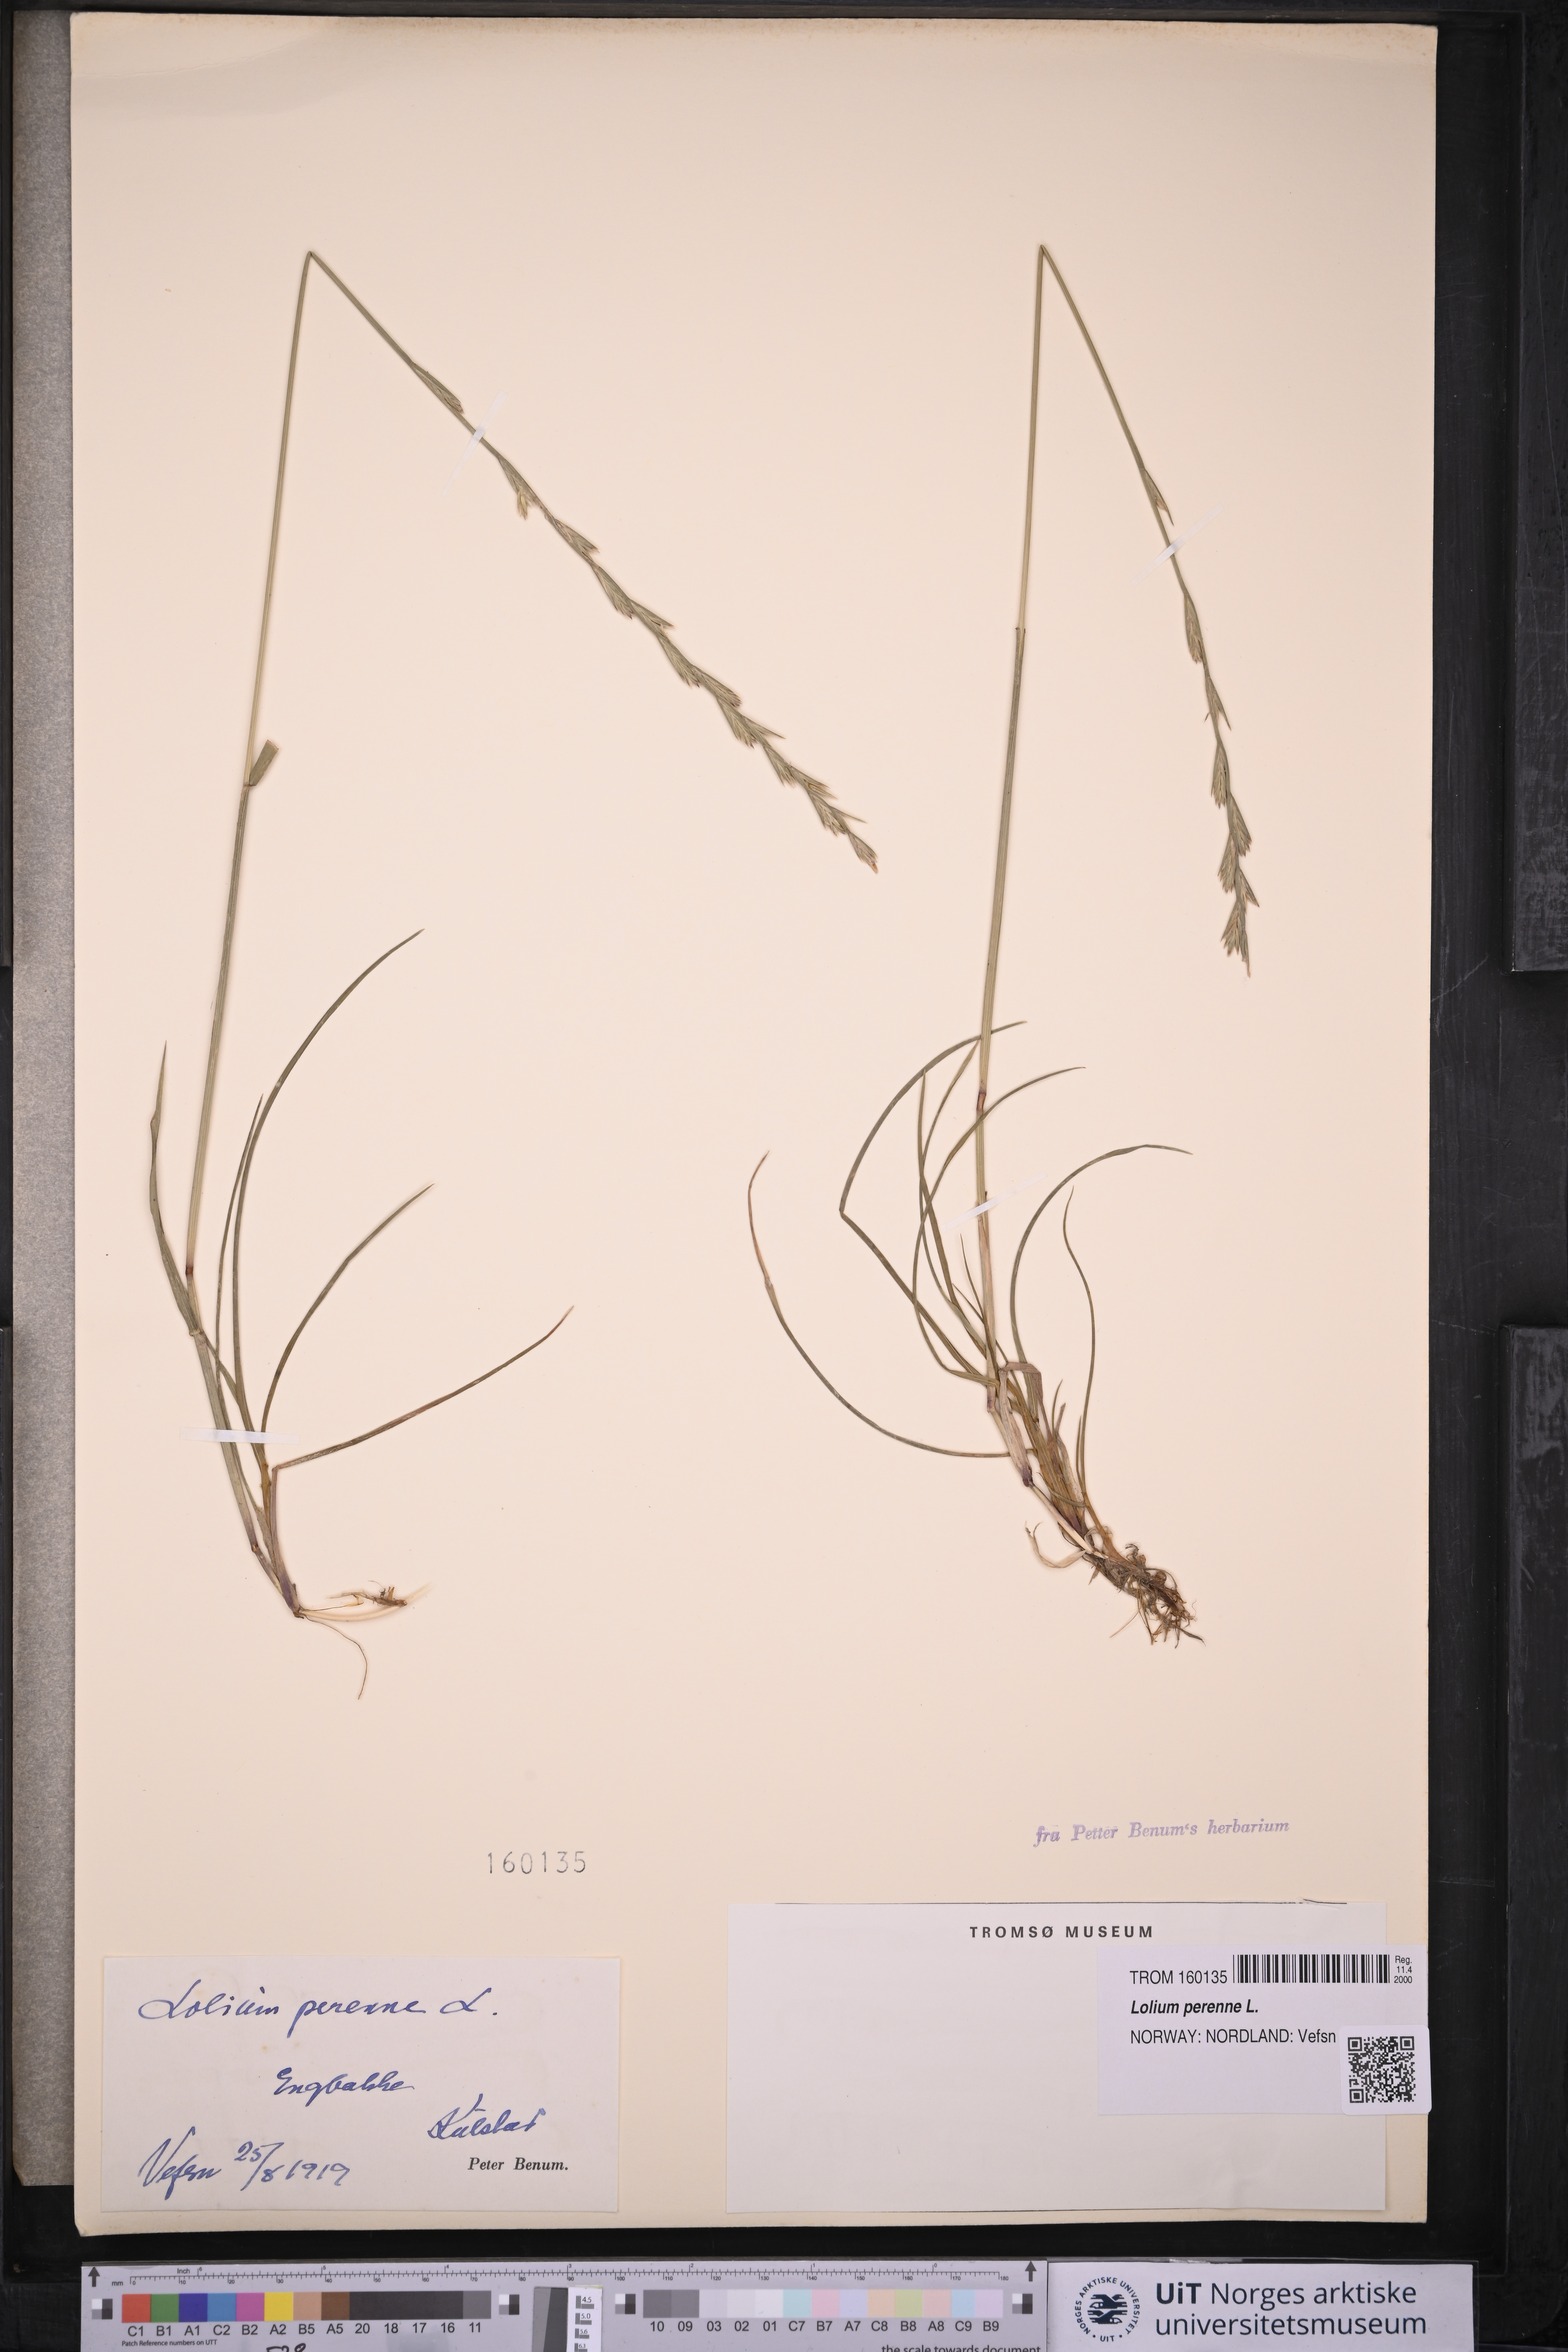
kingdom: Plantae
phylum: Tracheophyta
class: Liliopsida
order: Poales
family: Poaceae
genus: Lolium
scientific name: Lolium perenne
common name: Perennial ryegrass
